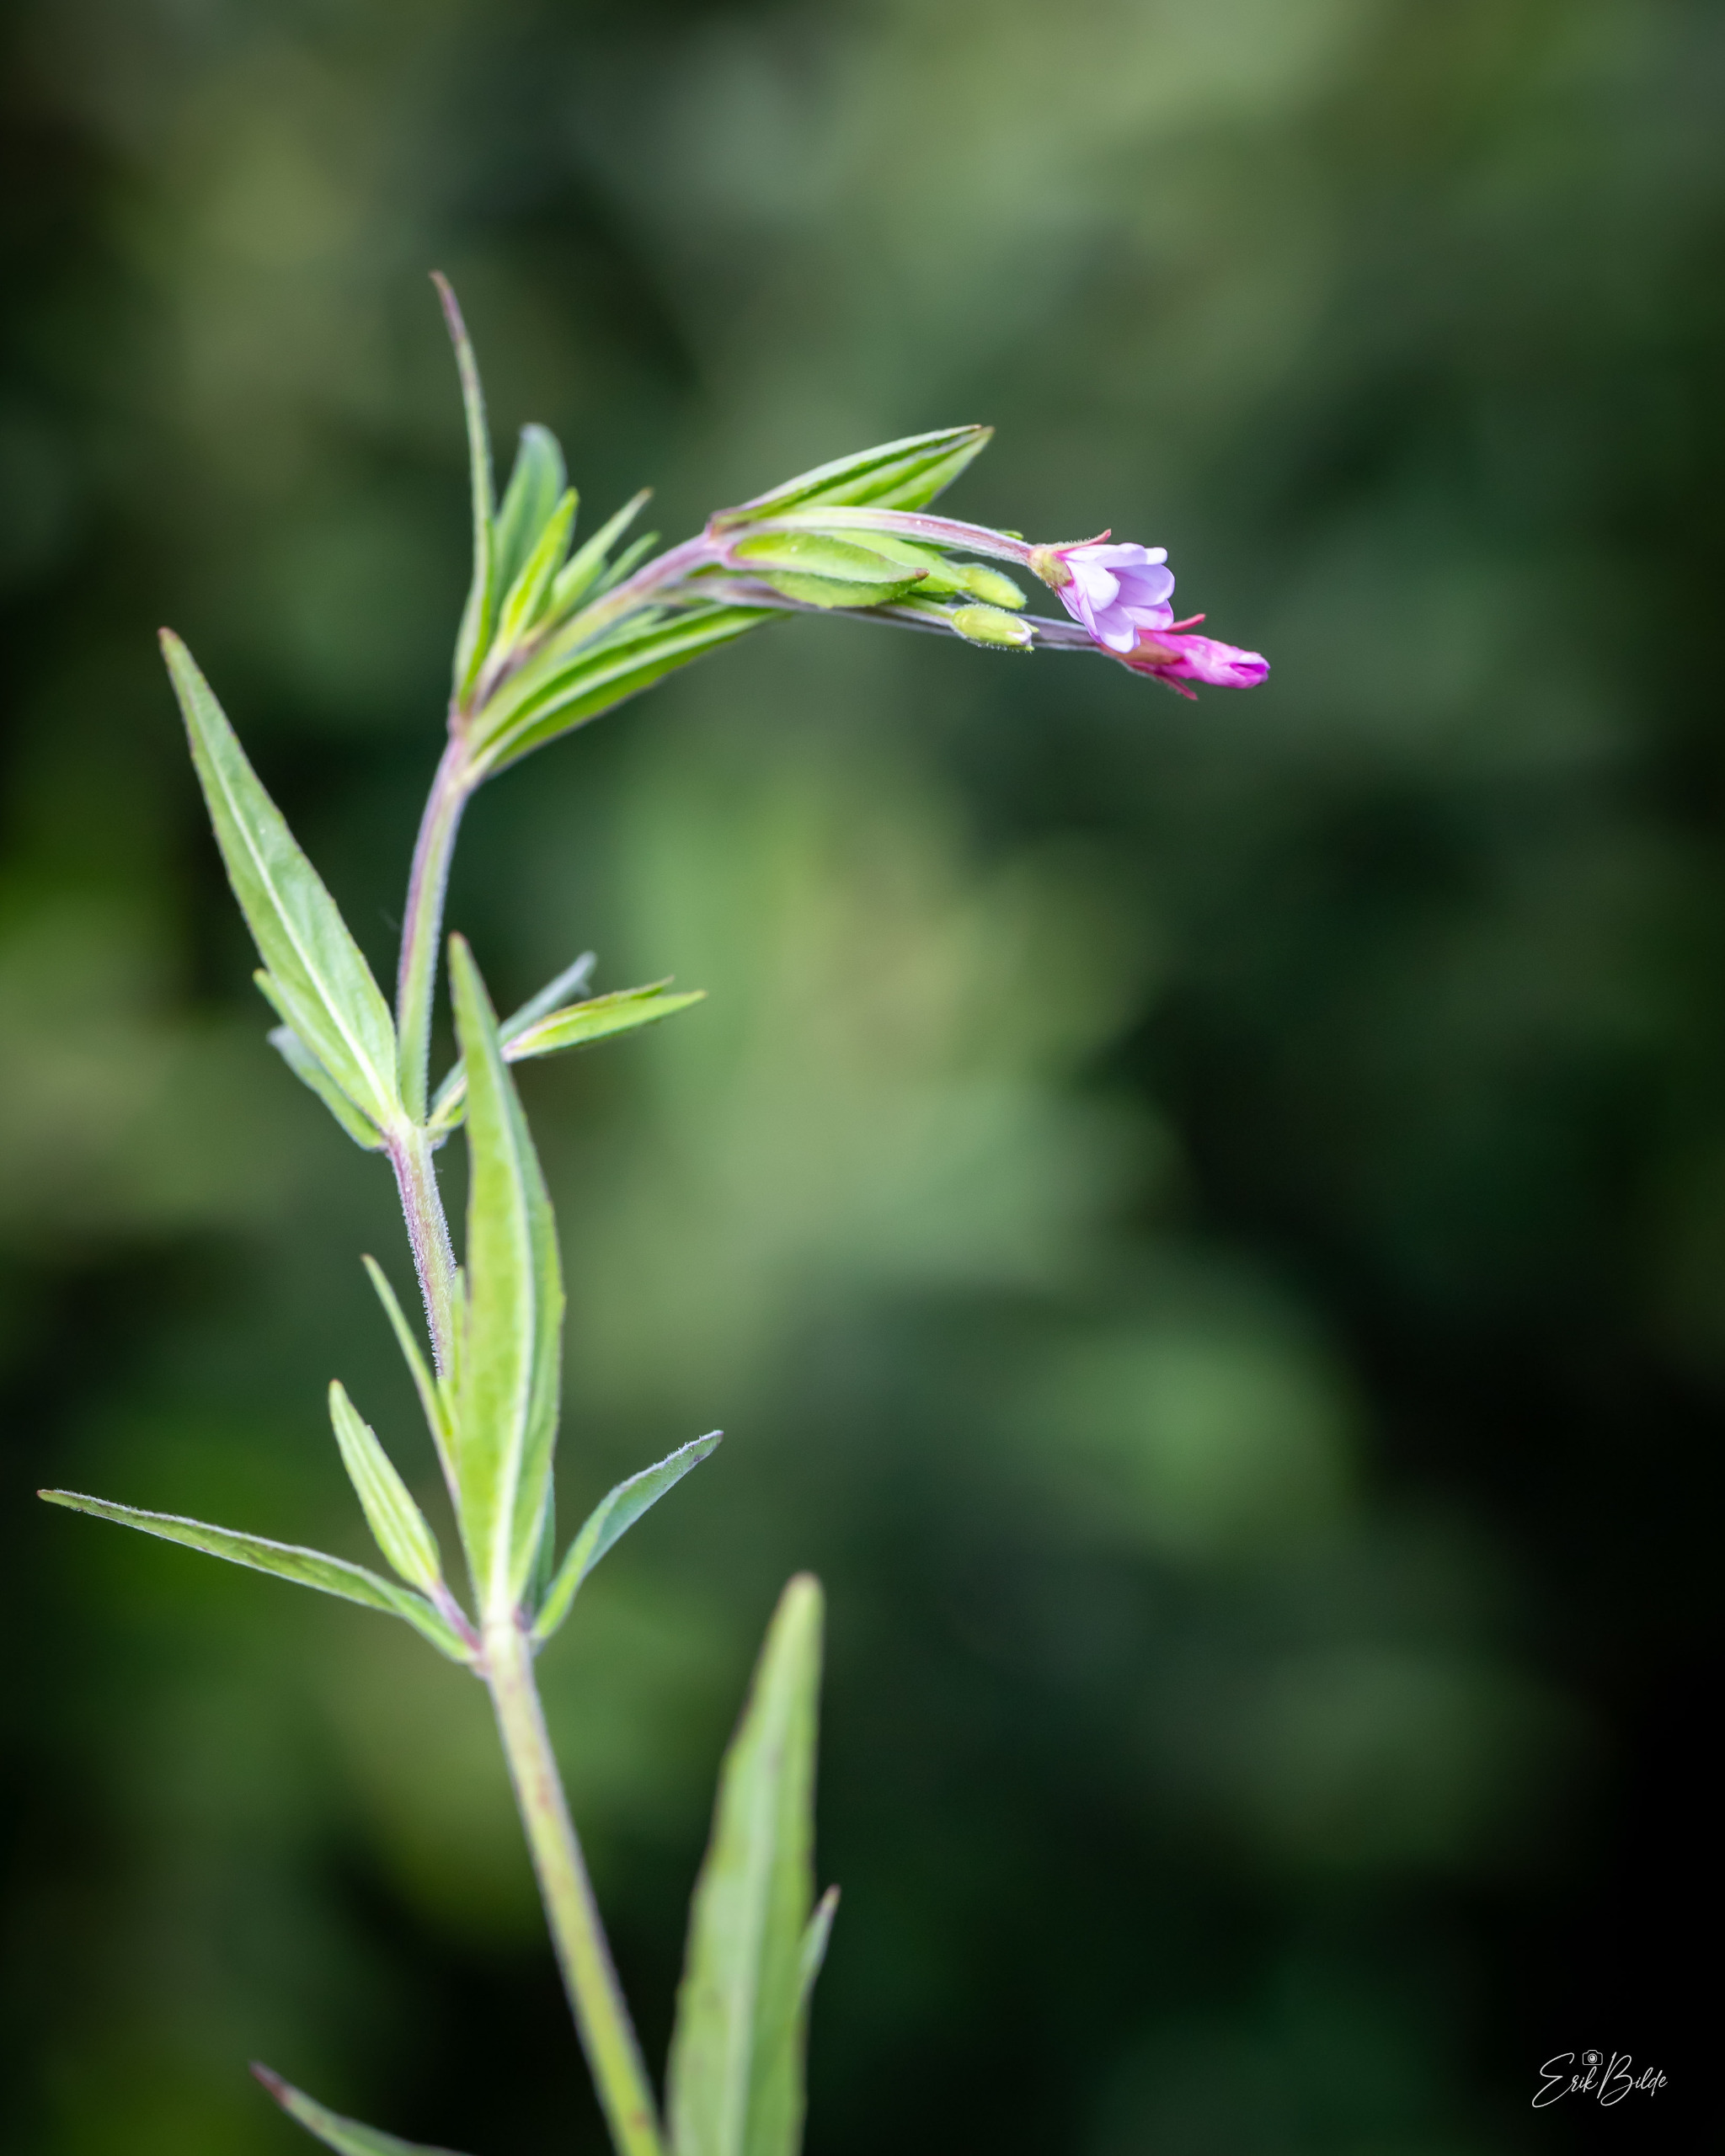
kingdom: Plantae
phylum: Tracheophyta
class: Magnoliopsida
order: Myrtales
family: Onagraceae
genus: Epilobium
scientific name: Epilobium obscurum
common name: Ris-dueurt
